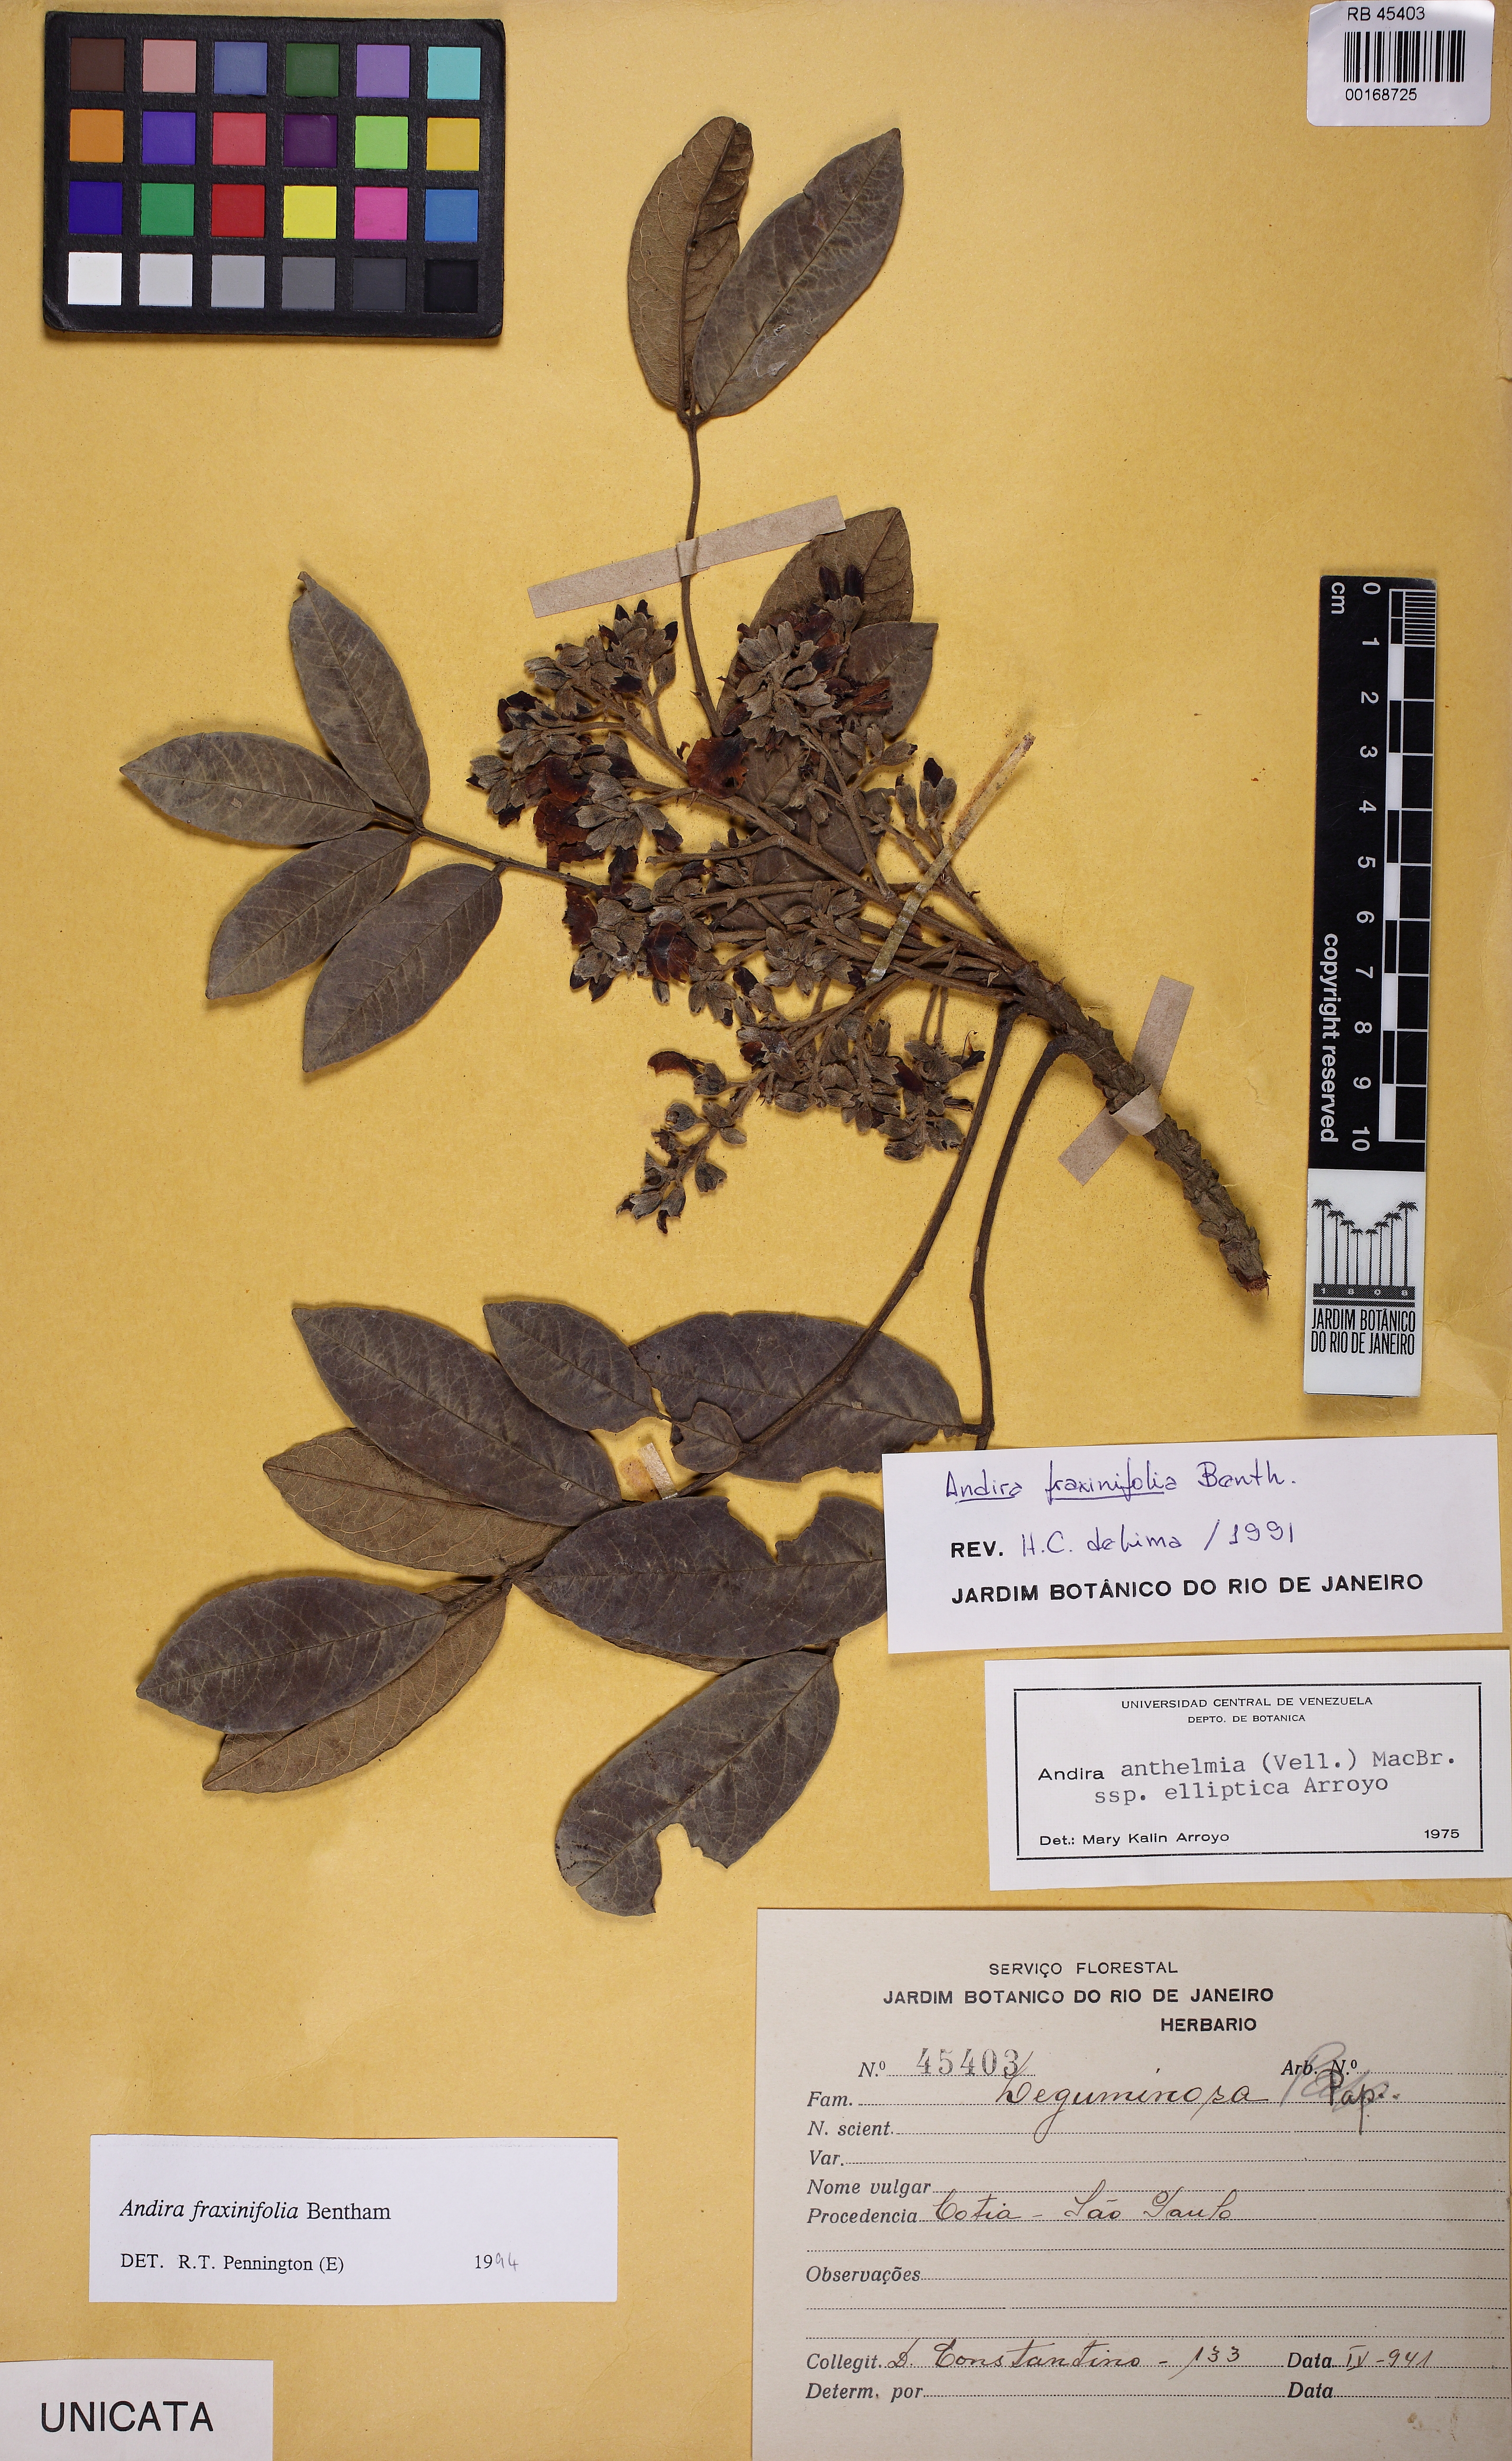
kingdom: Plantae
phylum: Tracheophyta
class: Magnoliopsida
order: Fabales
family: Fabaceae
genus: Andira
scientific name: Andira fraxinifolia
